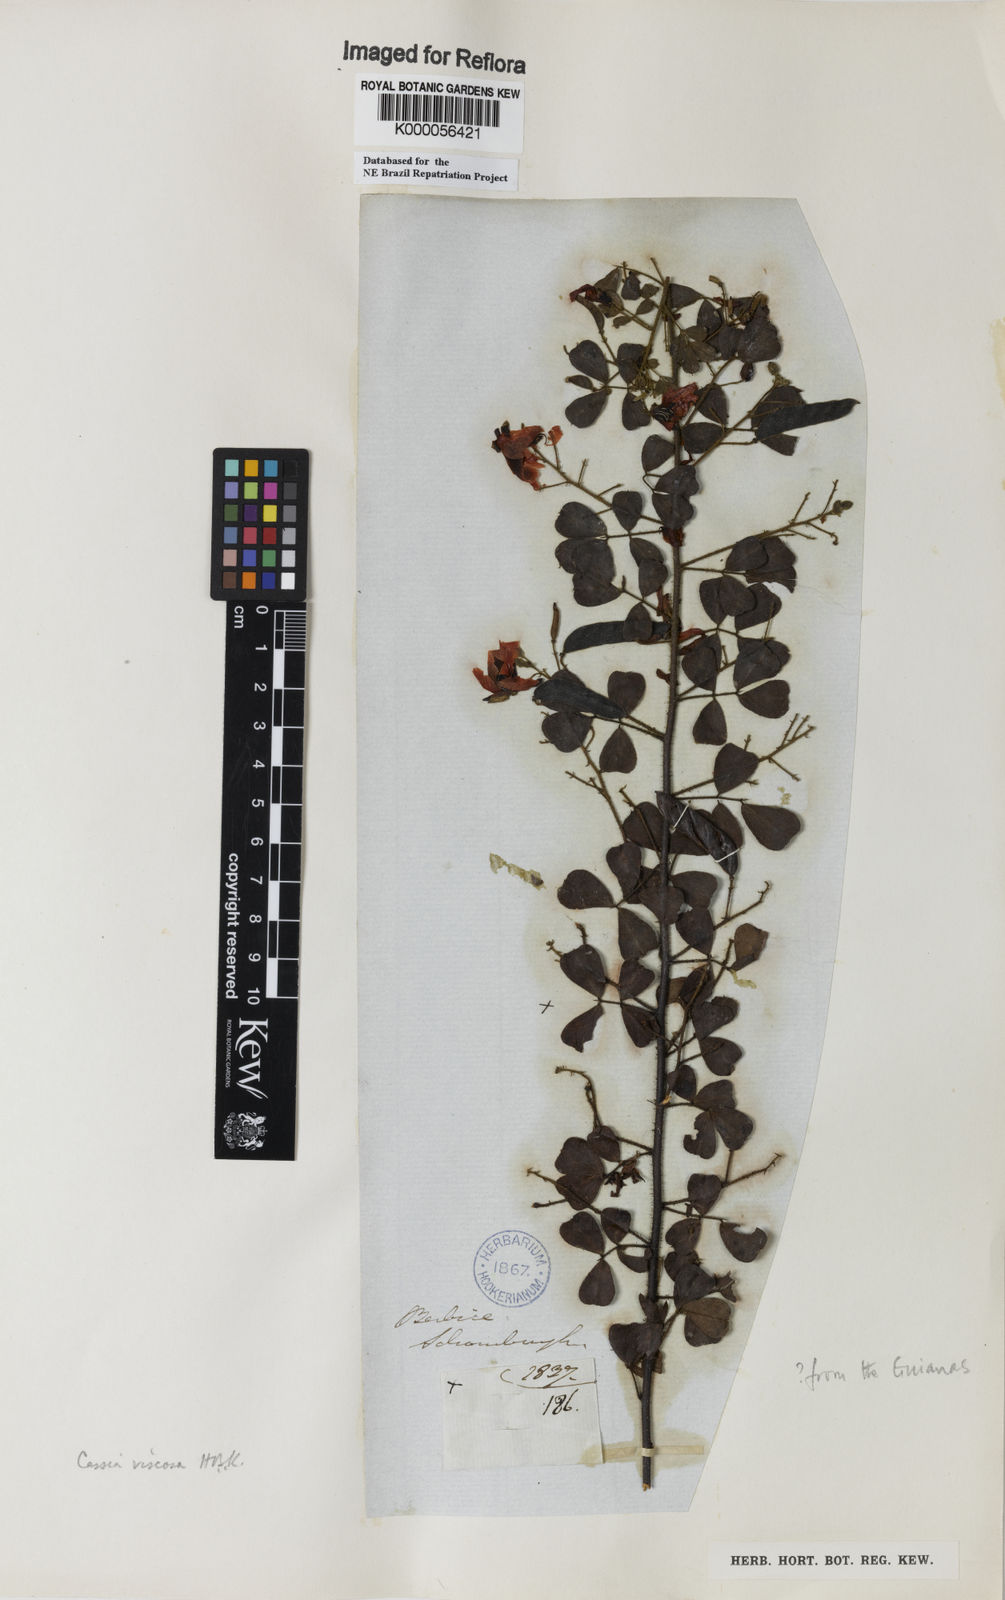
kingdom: Plantae
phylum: Tracheophyta
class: Magnoliopsida
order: Fabales
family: Fabaceae
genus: Chamaecrista
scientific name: Chamaecrista viscosa
